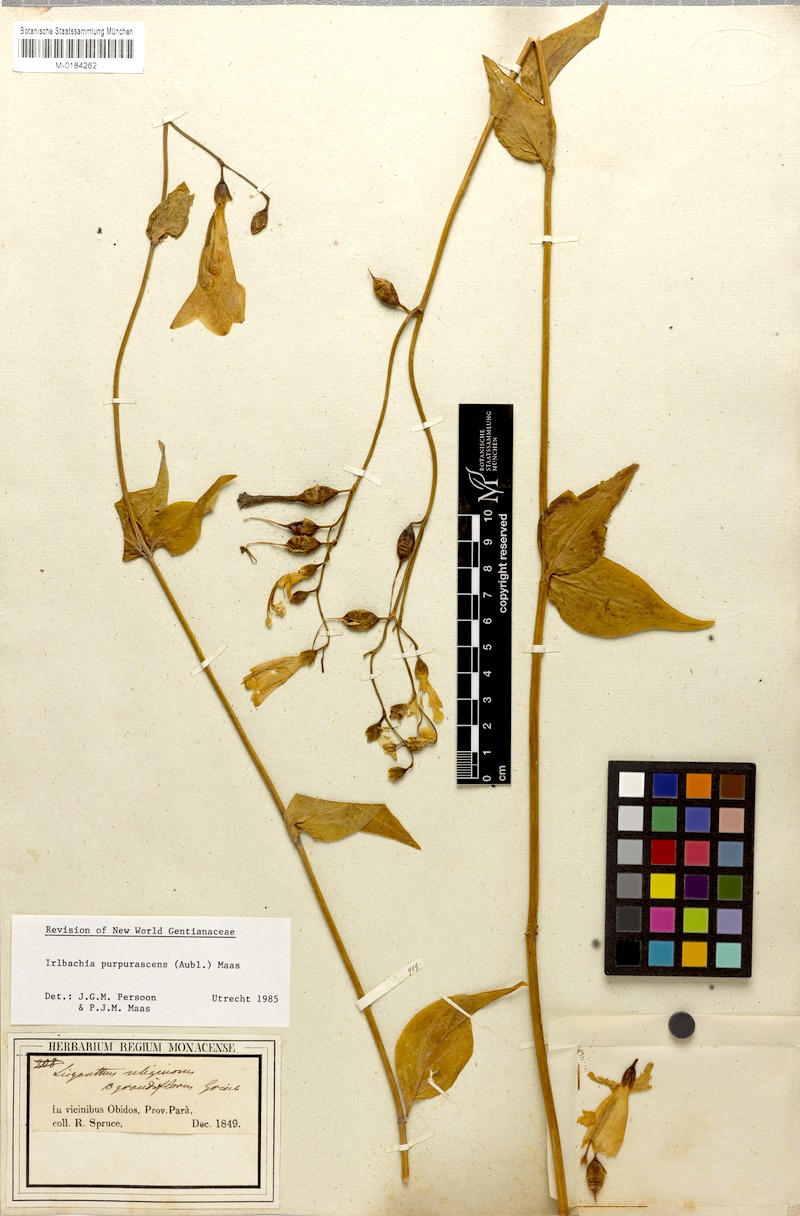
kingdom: Plantae
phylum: Tracheophyta
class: Magnoliopsida
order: Gentianales
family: Gentianaceae
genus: Chelonanthus
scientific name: Chelonanthus purpurascens
